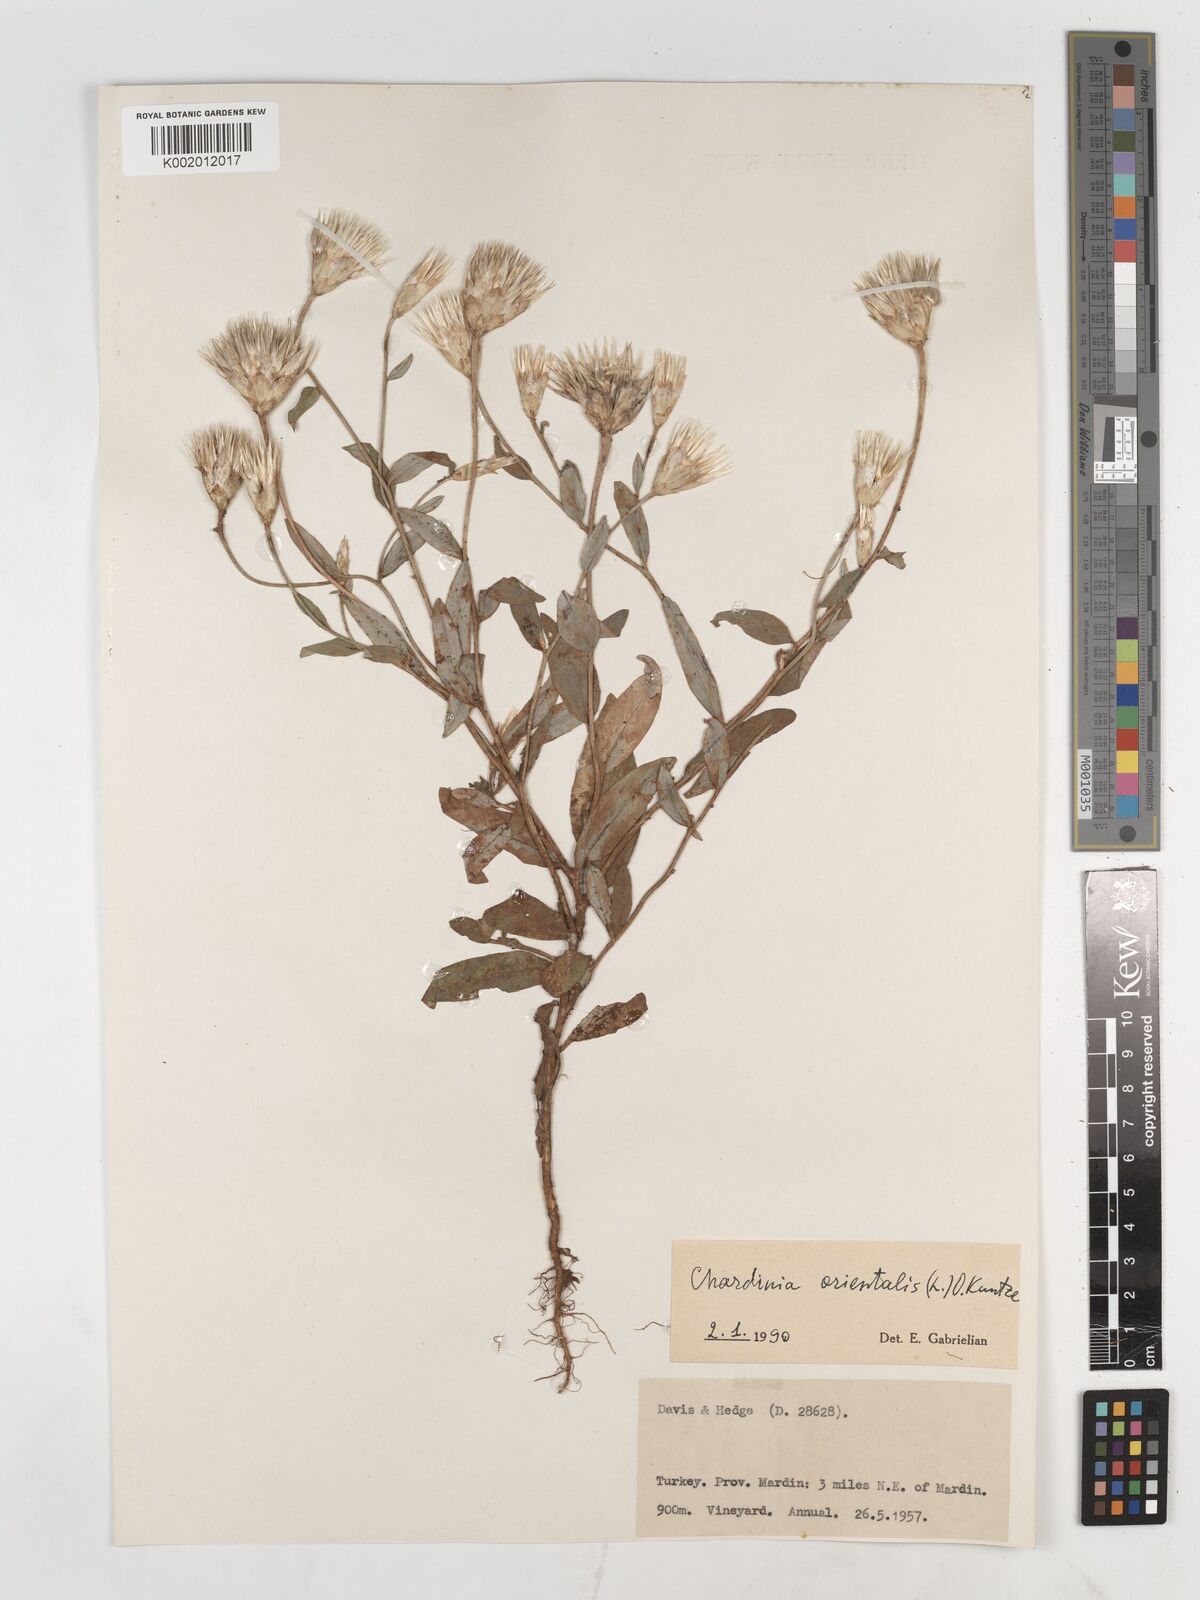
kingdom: Plantae
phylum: Tracheophyta
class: Magnoliopsida
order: Asterales
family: Asteraceae
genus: Chardinia
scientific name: Chardinia orientalis
